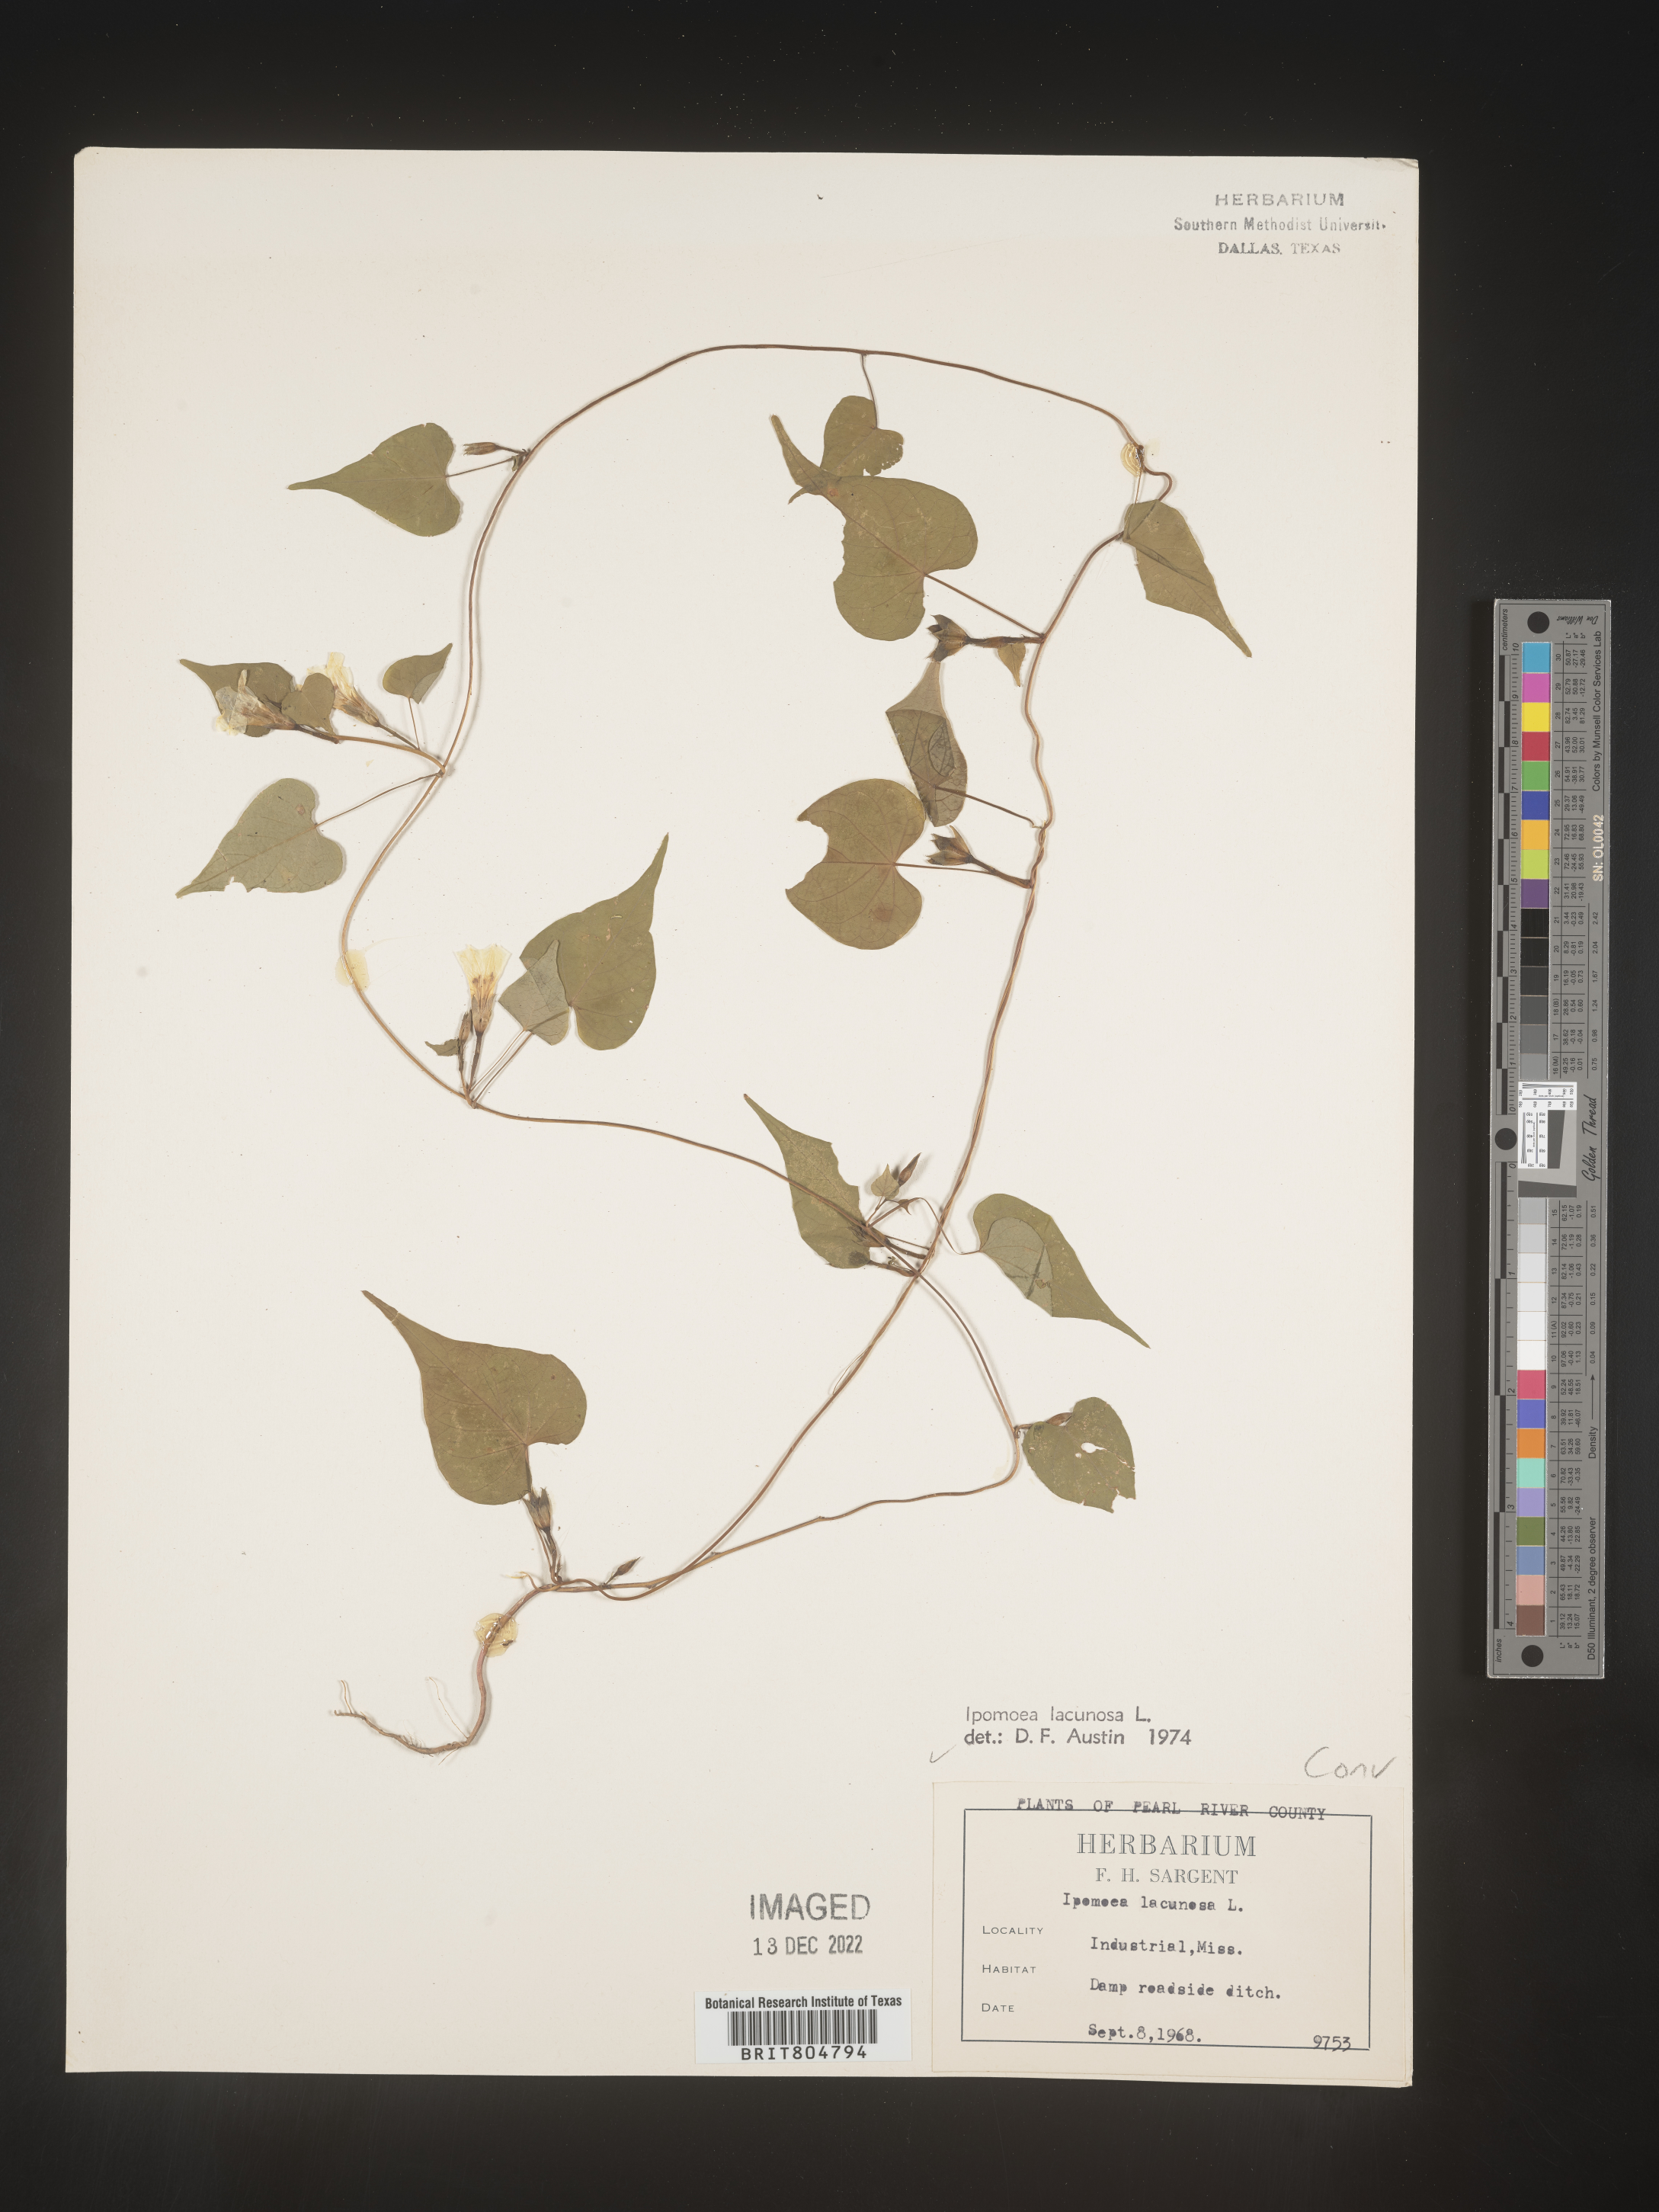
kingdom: Plantae
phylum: Tracheophyta
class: Magnoliopsida
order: Solanales
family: Convolvulaceae
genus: Ipomoea
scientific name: Ipomoea lacunosa
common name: White morning-glory
